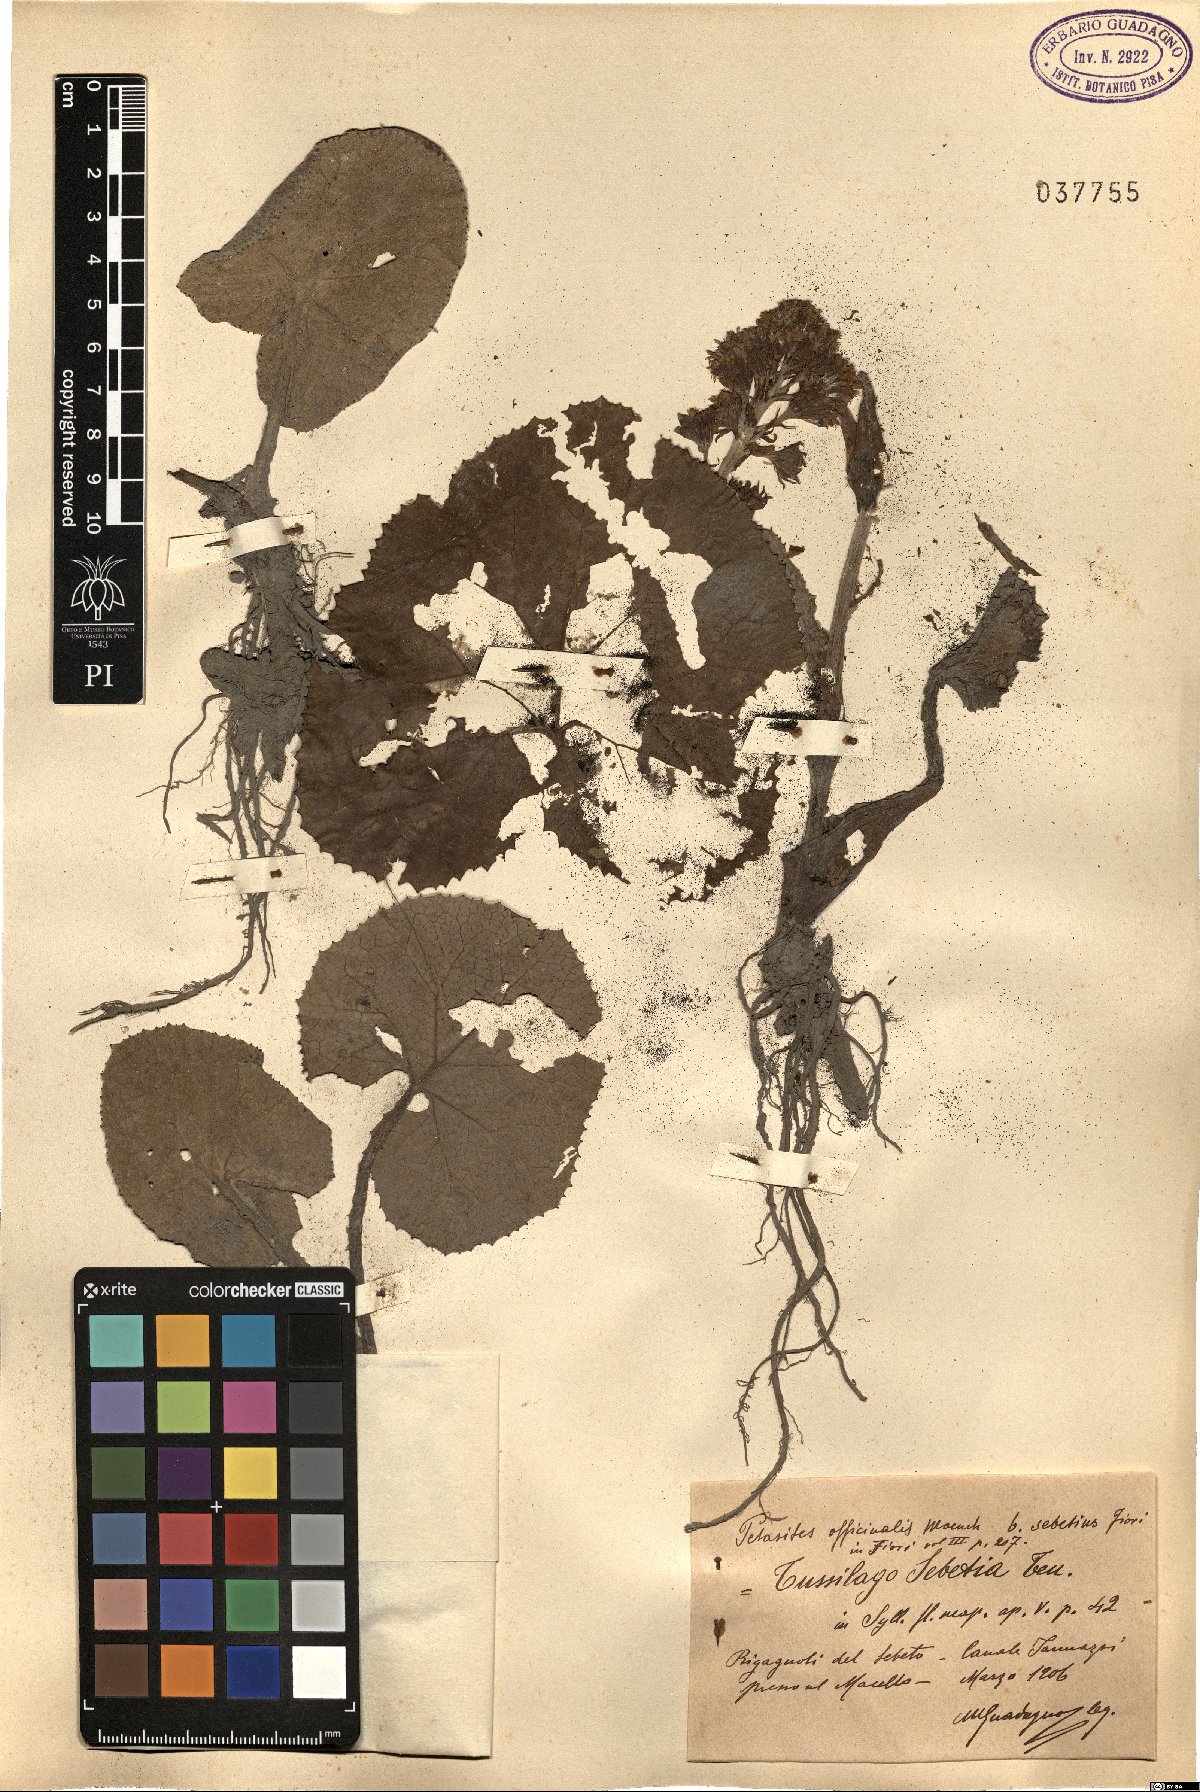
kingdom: Plantae
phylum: Tracheophyta
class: Magnoliopsida
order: Asterales
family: Asteraceae
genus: Petasites
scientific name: Petasites hybridus
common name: Butterbur
